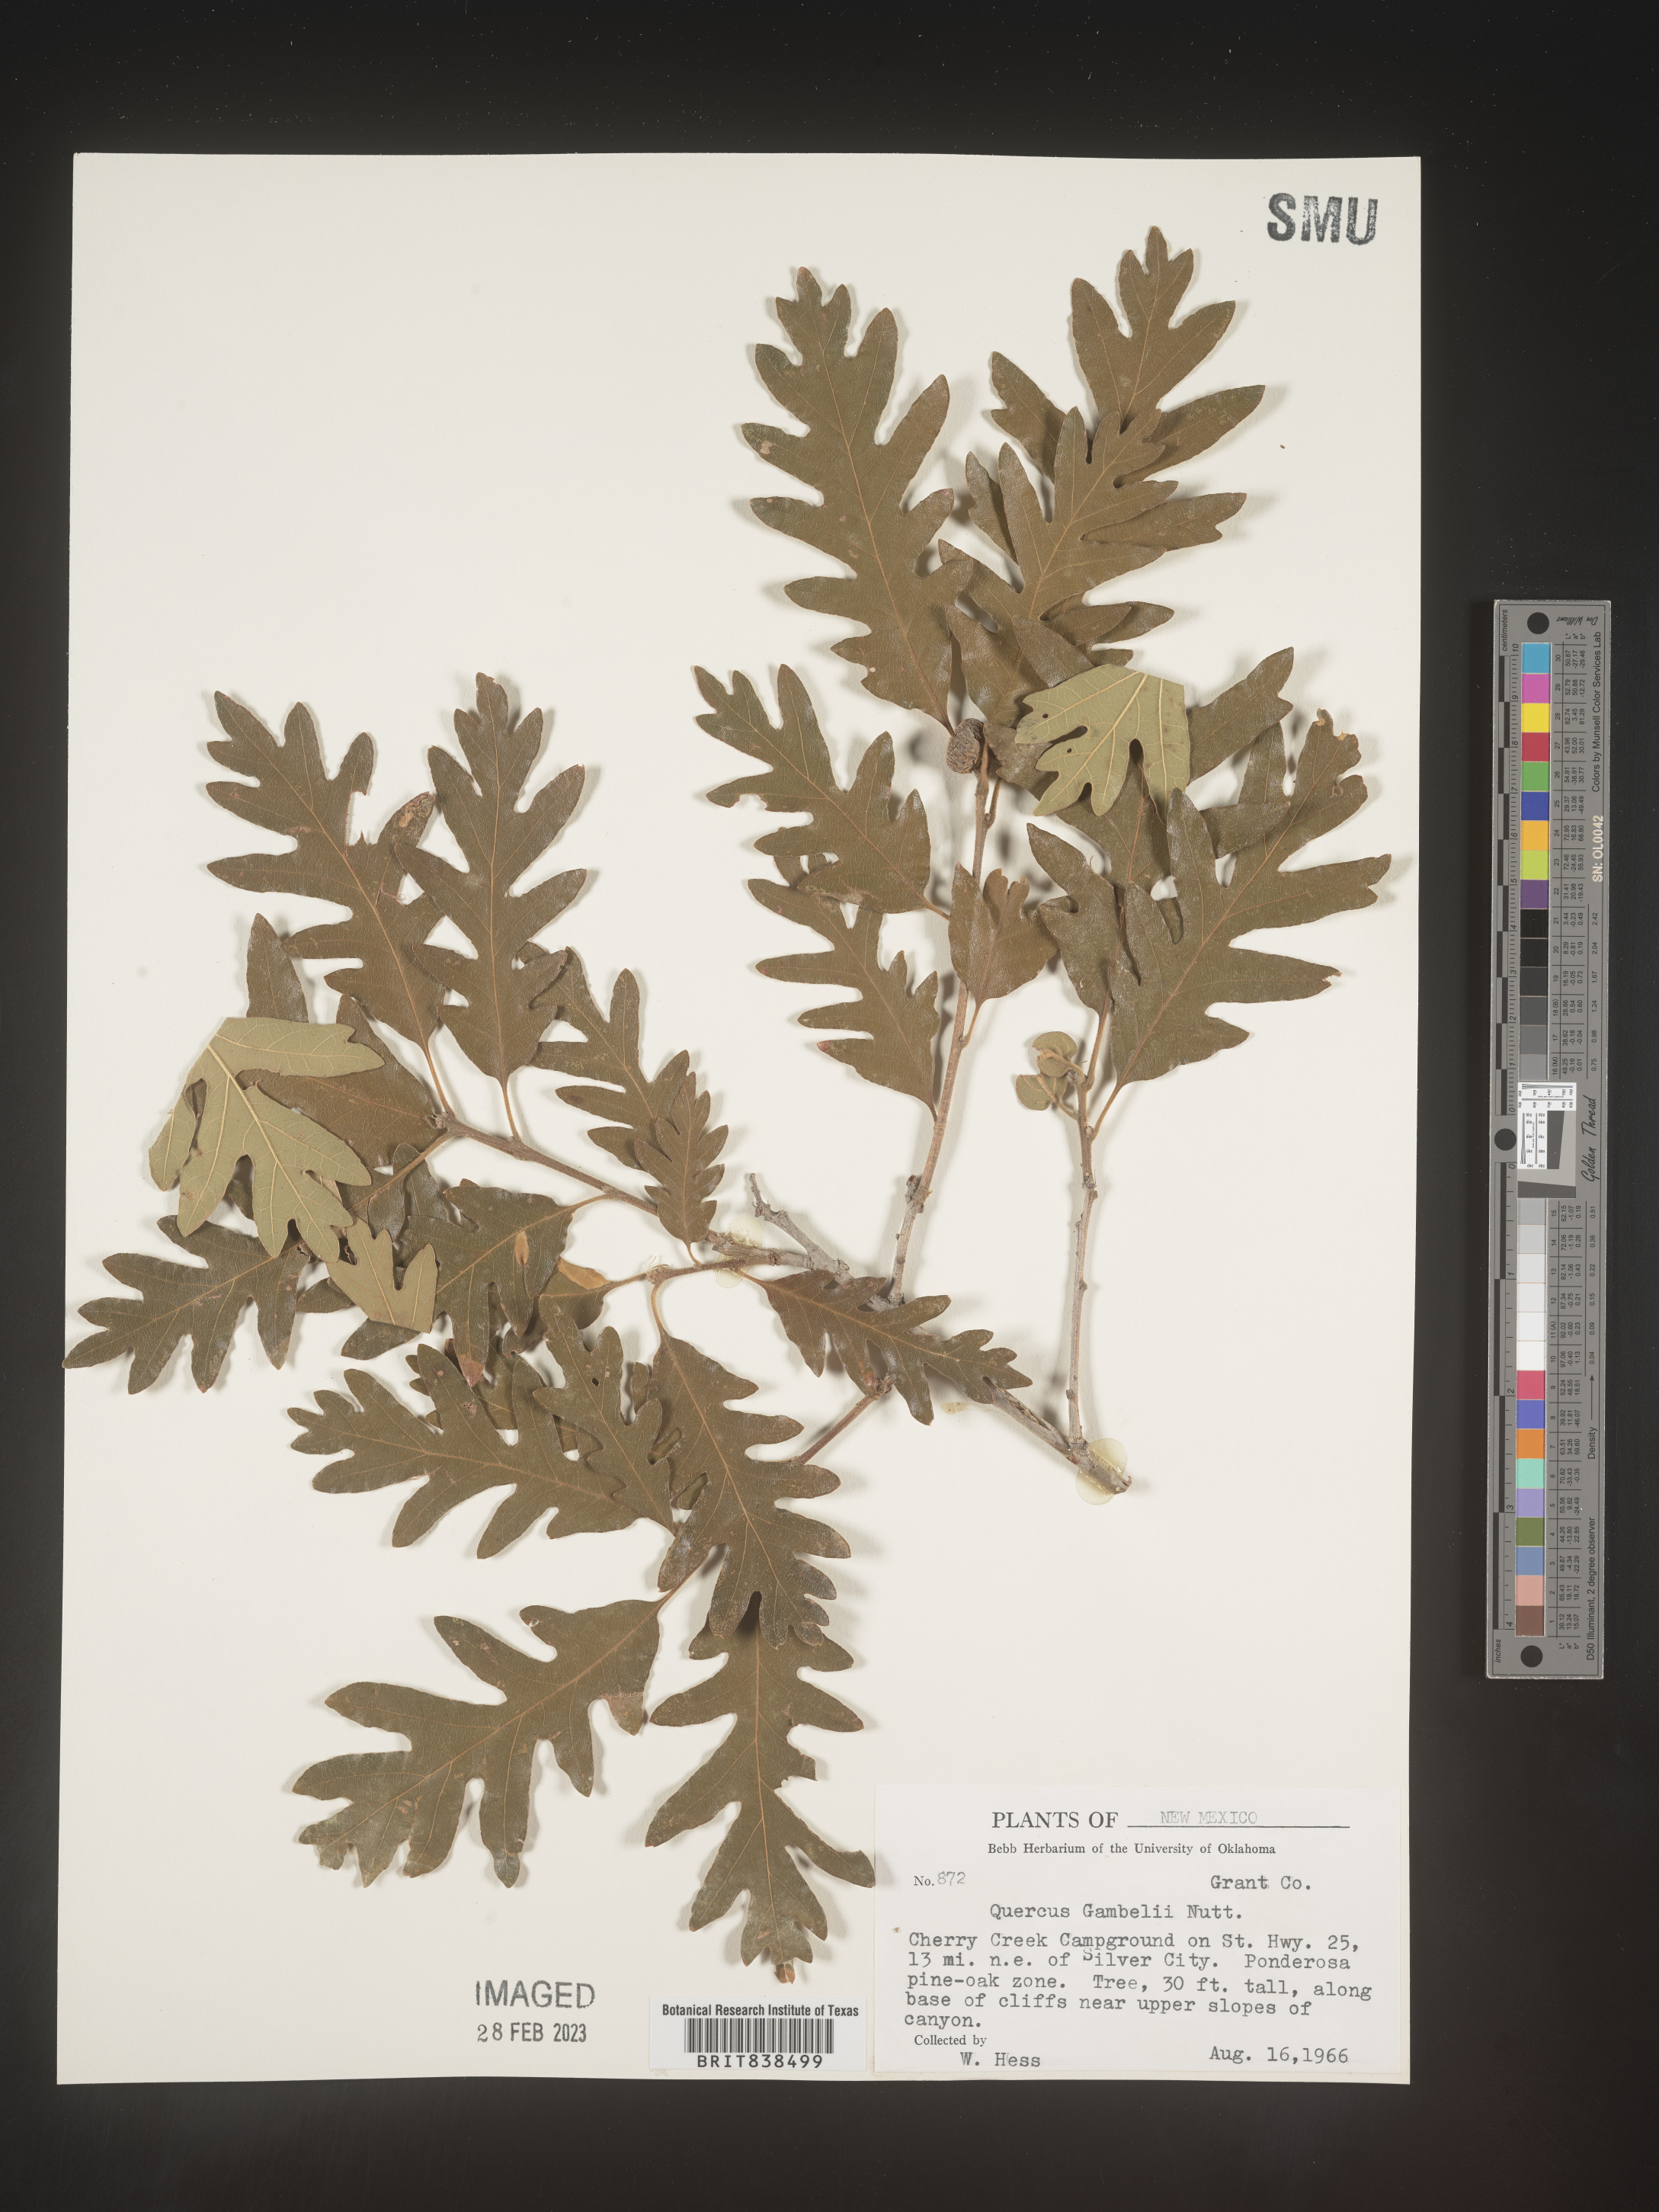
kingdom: Plantae
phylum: Tracheophyta
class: Magnoliopsida
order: Fagales
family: Fagaceae
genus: Quercus
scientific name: Quercus gambelii
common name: Gambel oak
